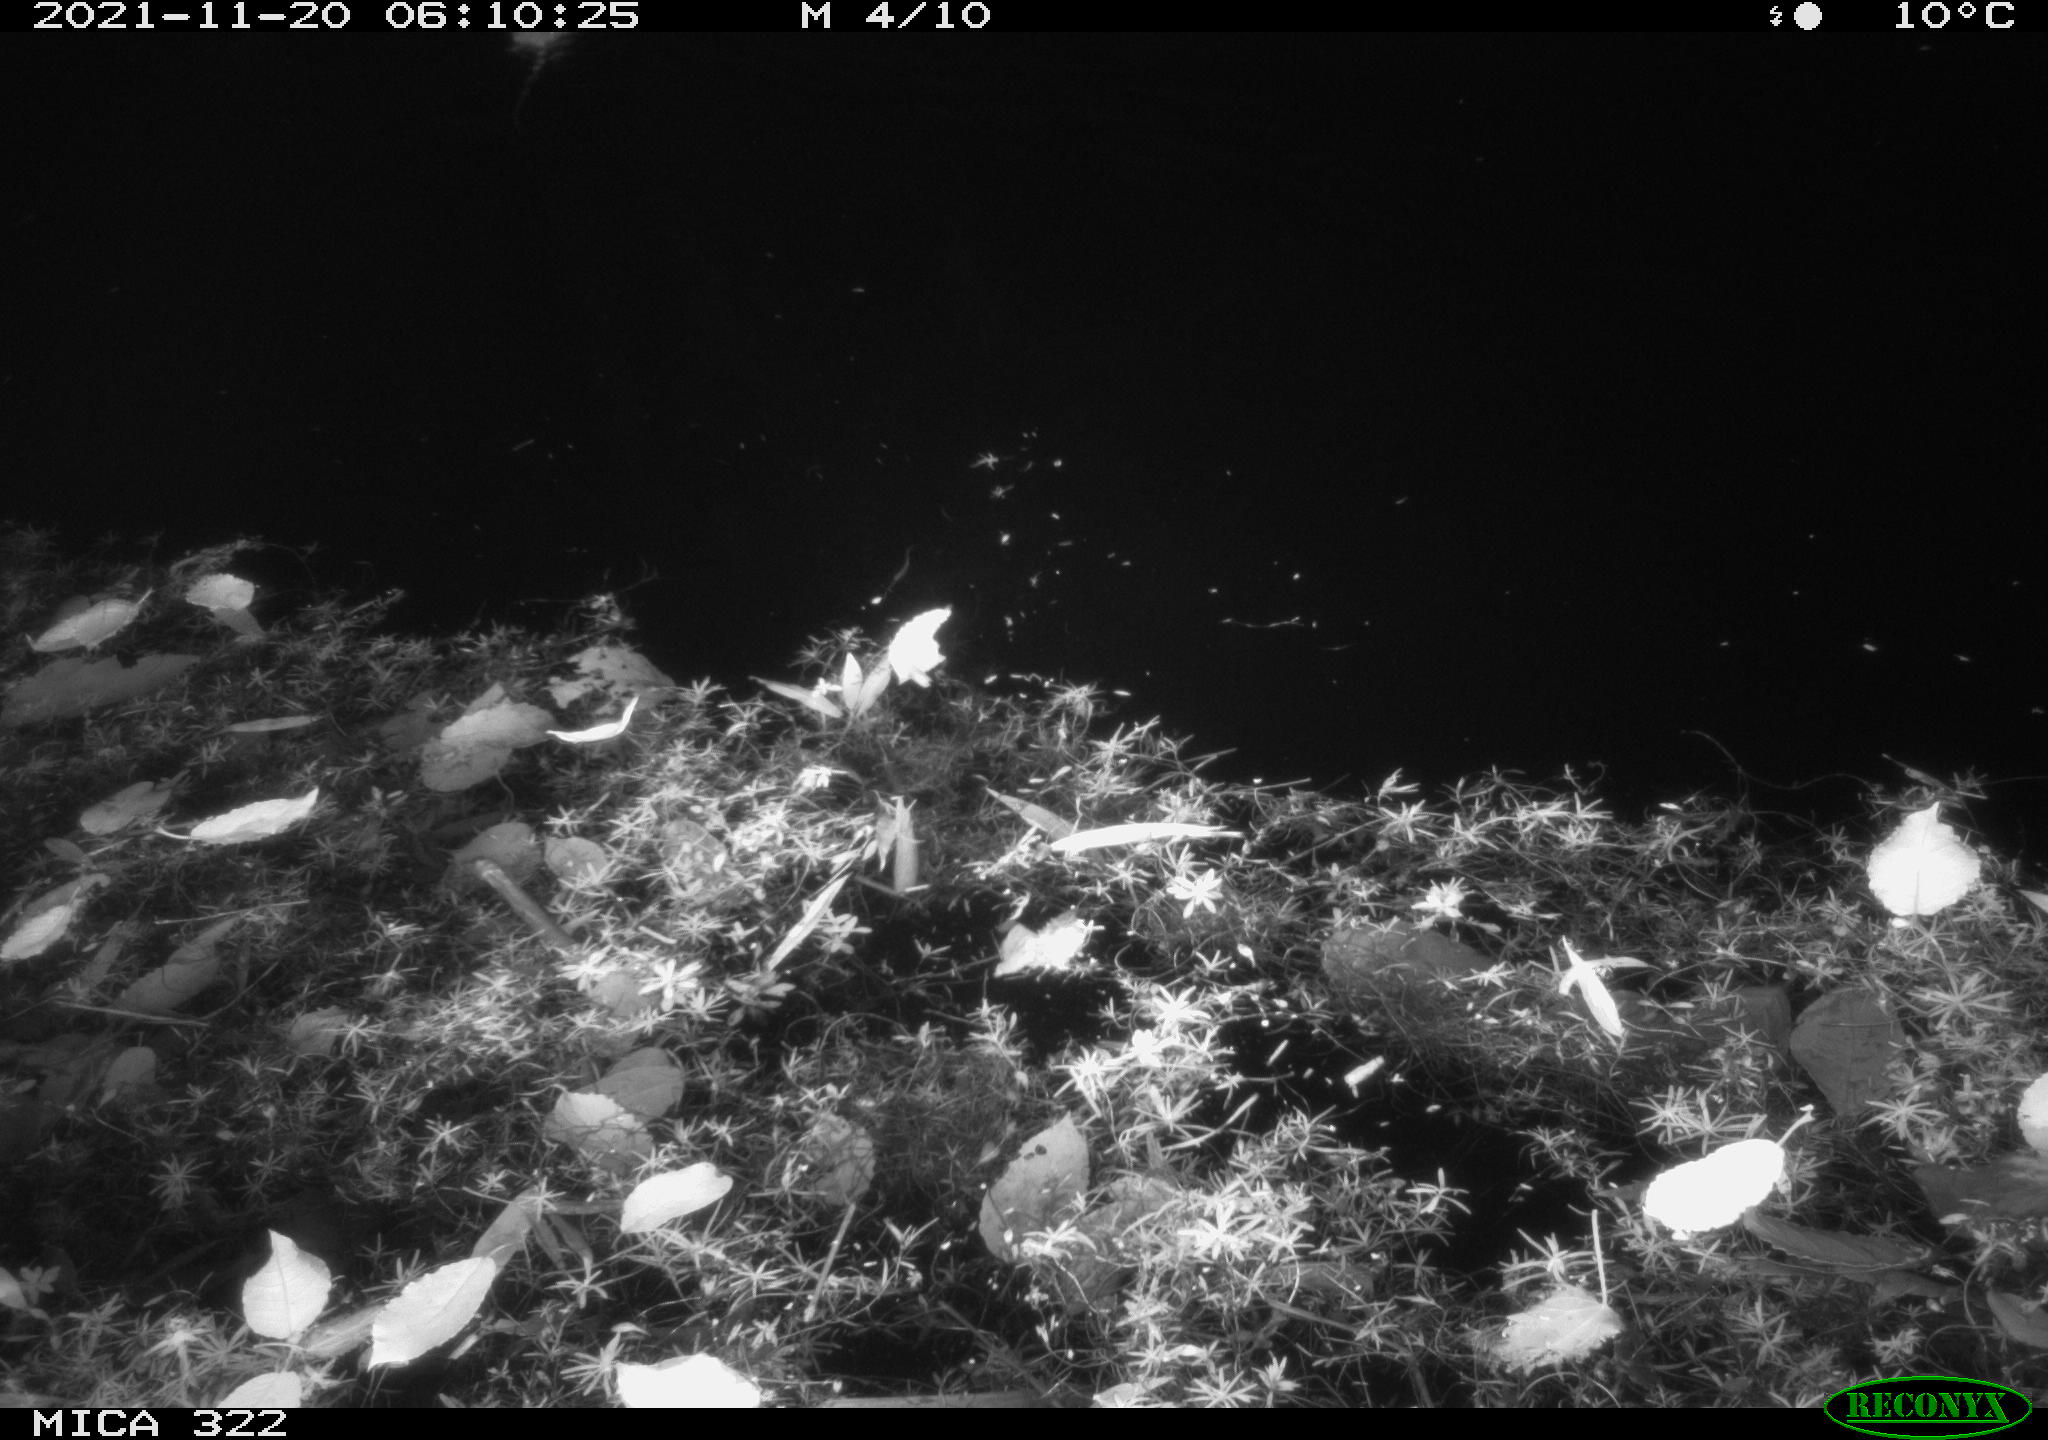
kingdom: Animalia
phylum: Chordata
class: Mammalia
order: Rodentia
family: Muridae
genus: Rattus
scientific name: Rattus norvegicus
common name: Brown rat
